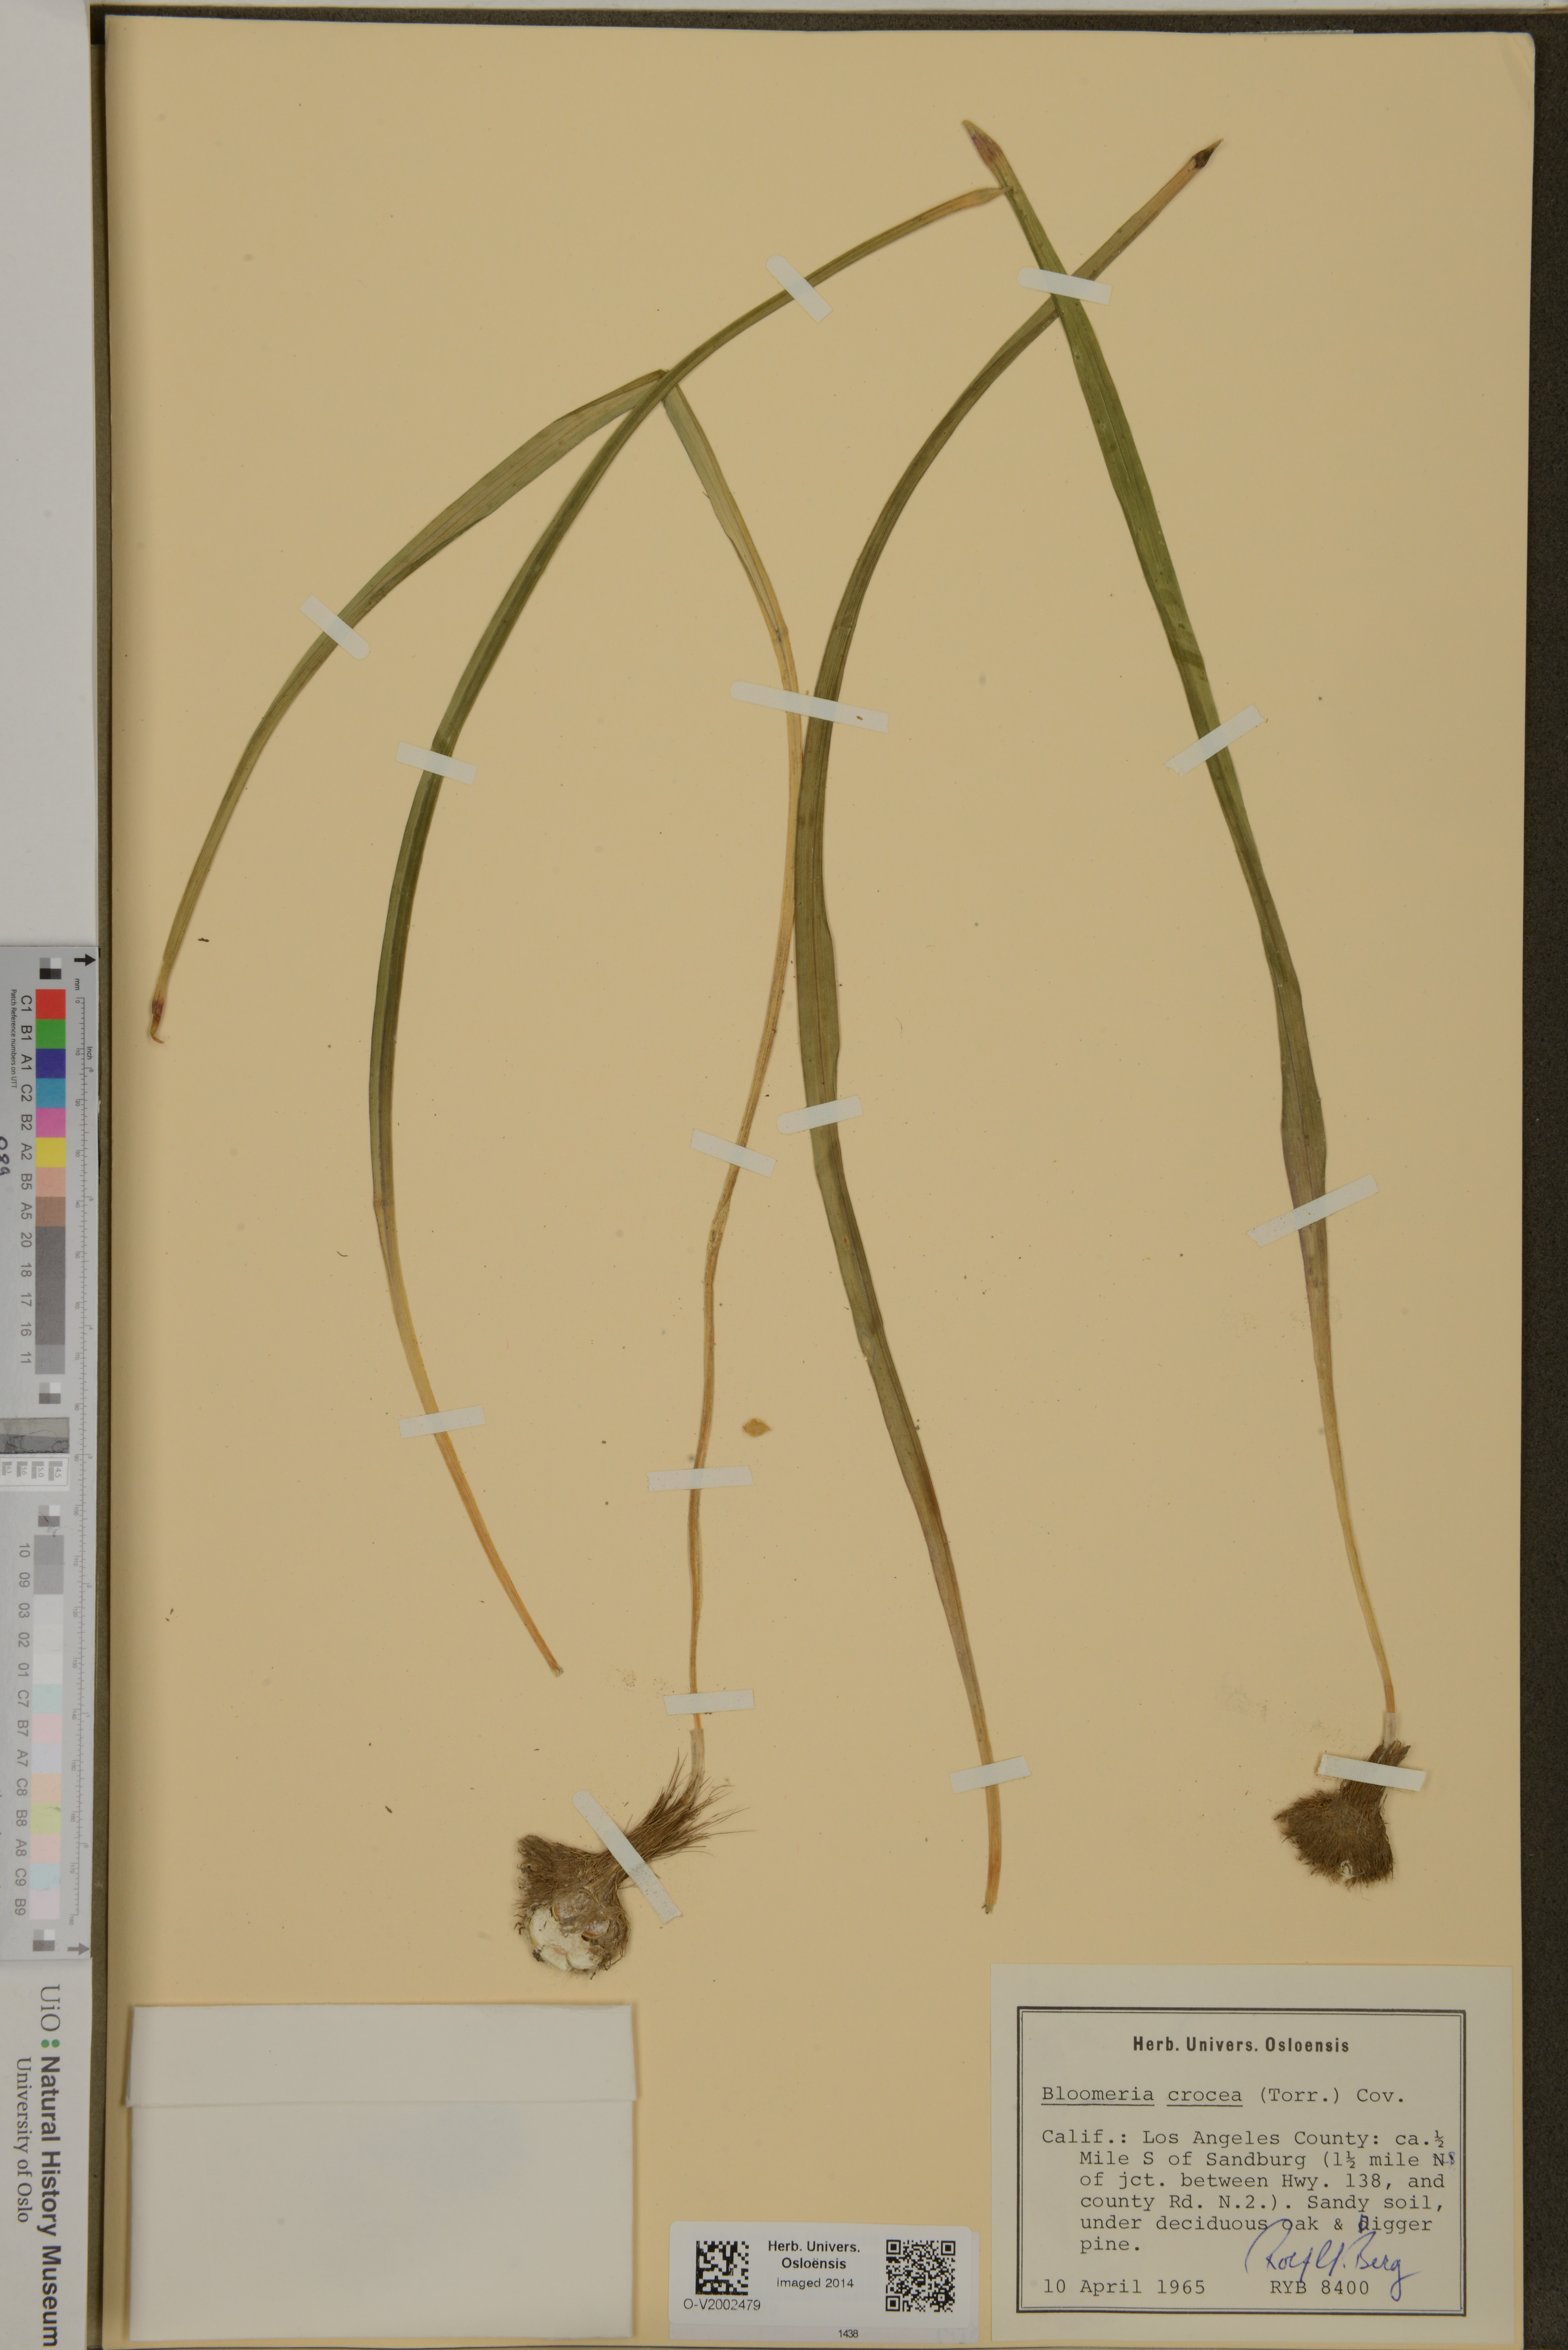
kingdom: Plantae
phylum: Tracheophyta
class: Liliopsida
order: Asparagales
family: Asparagaceae
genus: Bloomeria
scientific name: Bloomeria crocea
